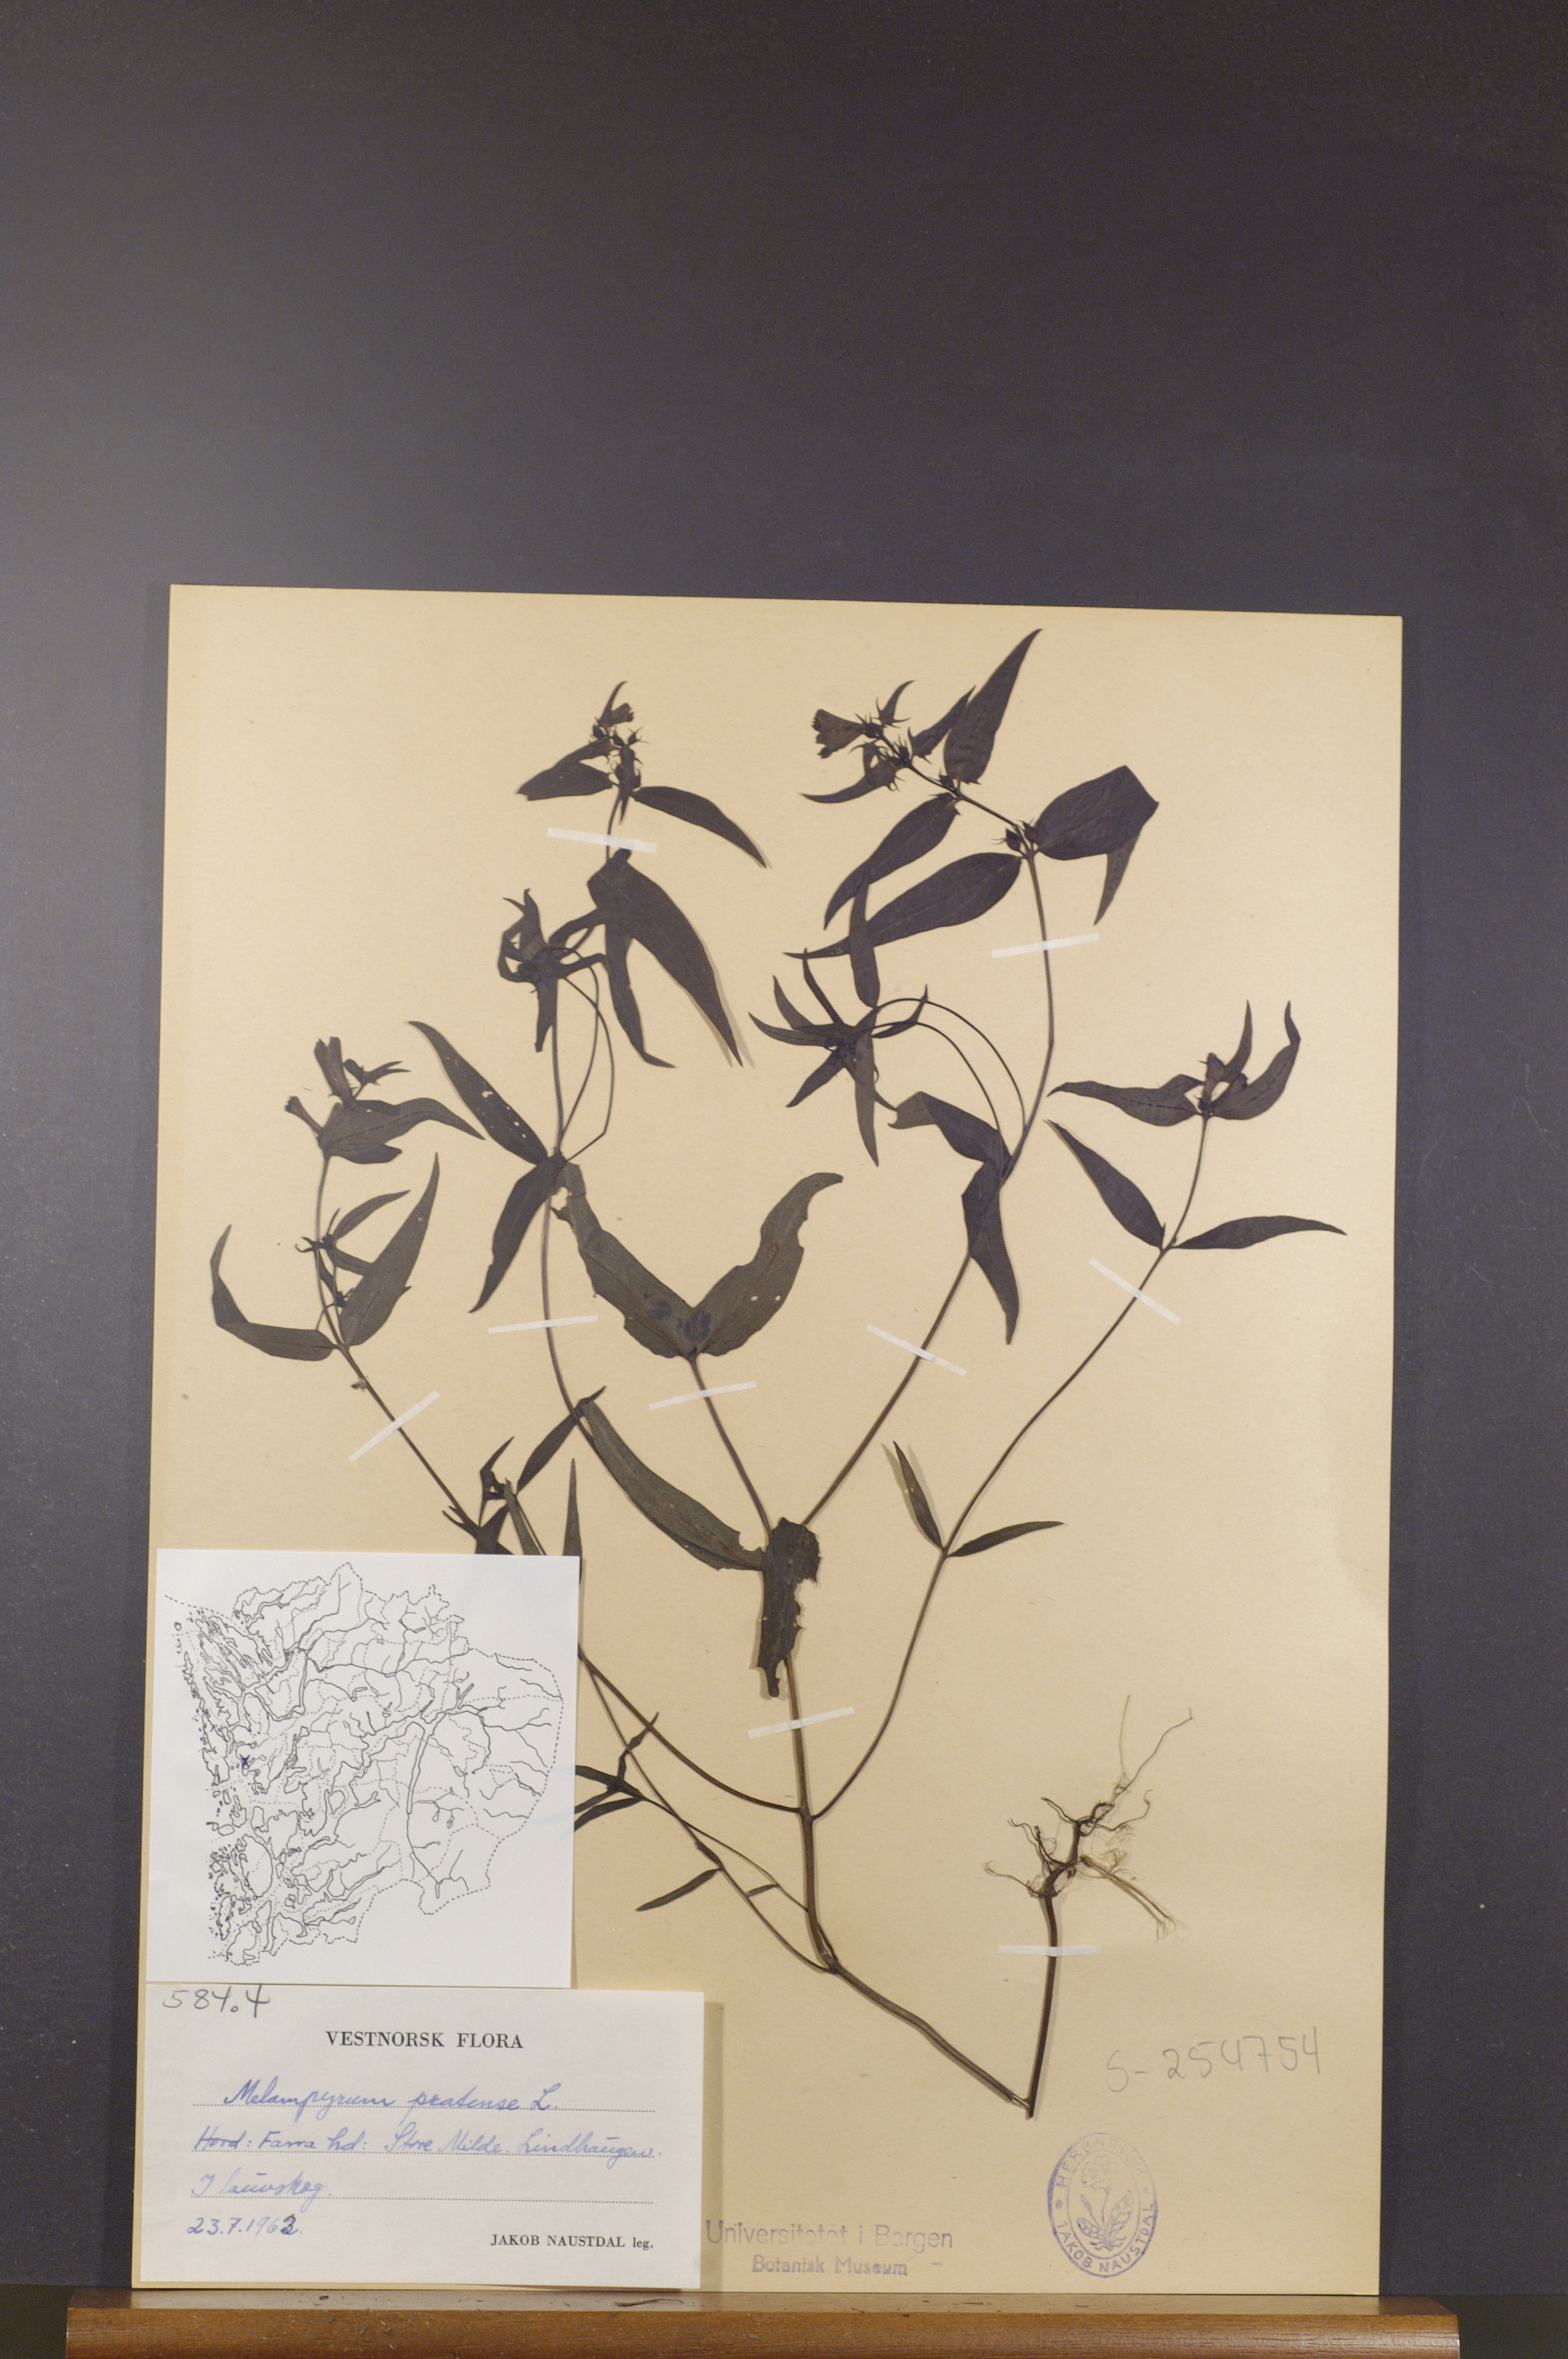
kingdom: Plantae
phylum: Tracheophyta
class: Magnoliopsida
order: Lamiales
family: Orobanchaceae
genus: Melampyrum
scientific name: Melampyrum pratense
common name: Common cow-wheat
